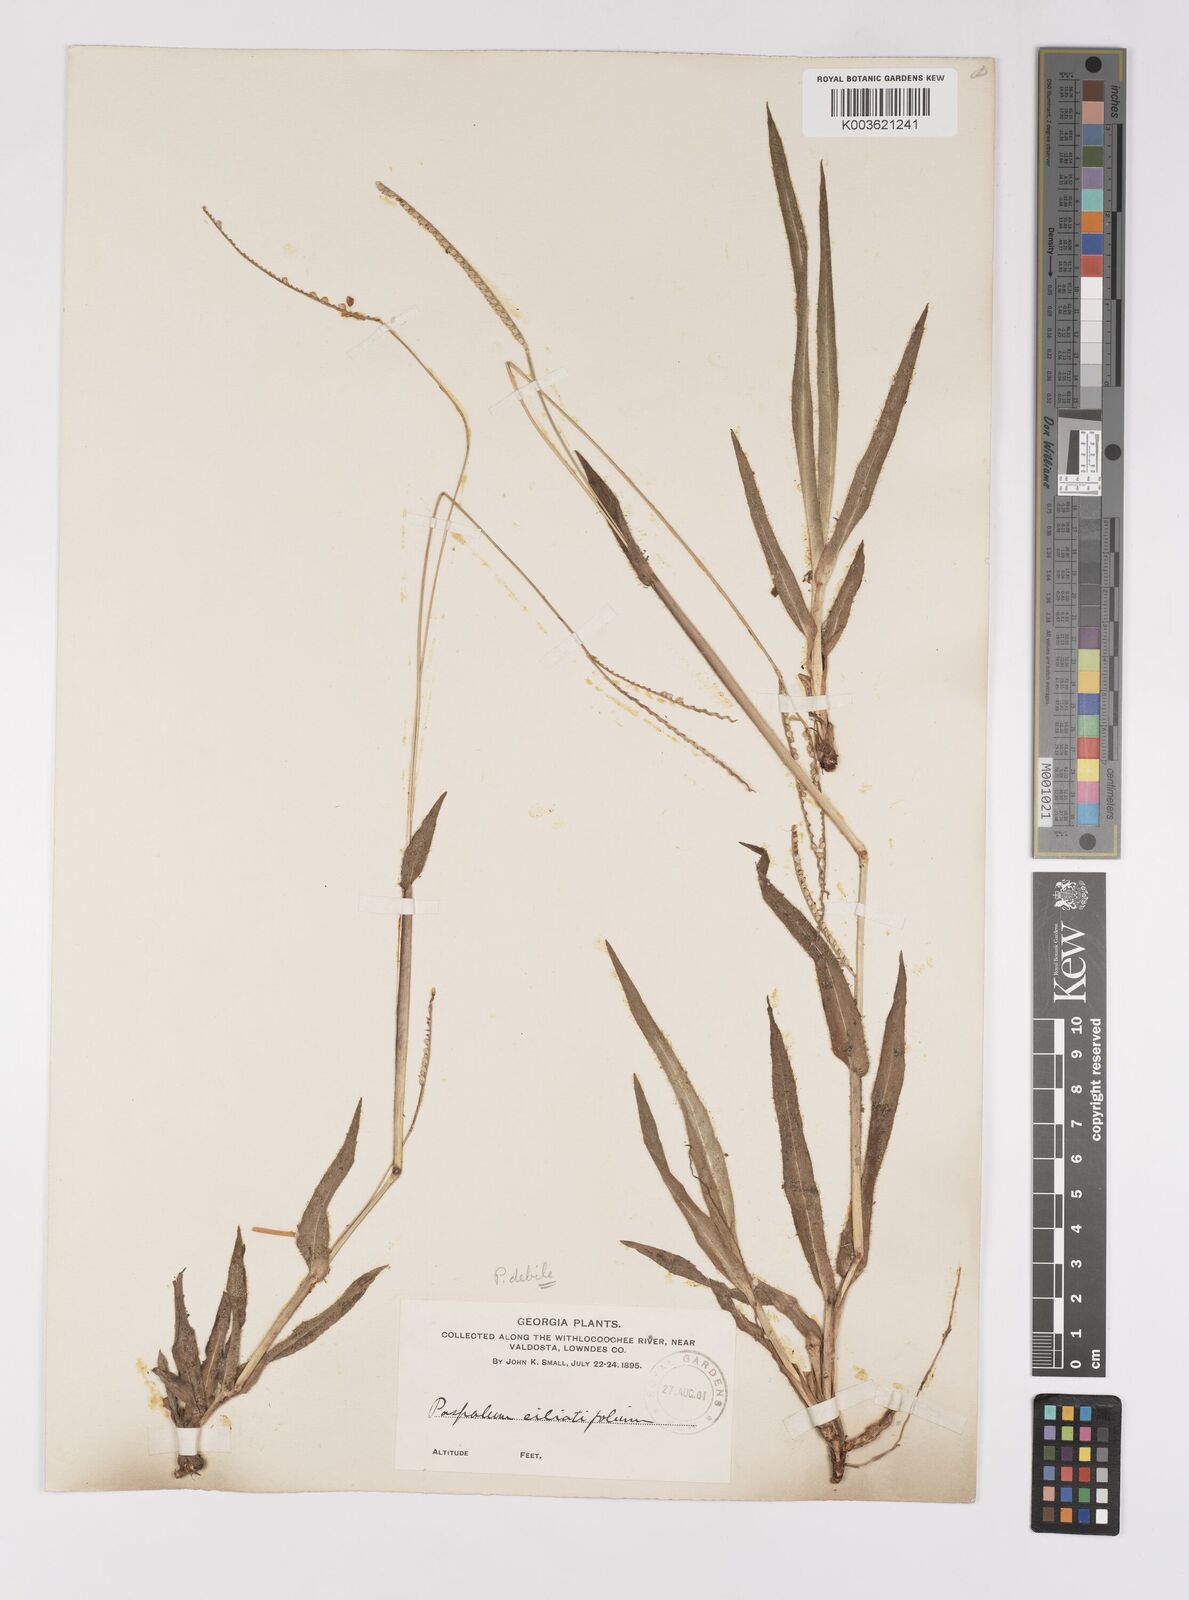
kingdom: Plantae
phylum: Tracheophyta
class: Liliopsida
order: Poales
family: Poaceae
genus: Paspalum
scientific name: Paspalum setaceum
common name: Slender paspalum
